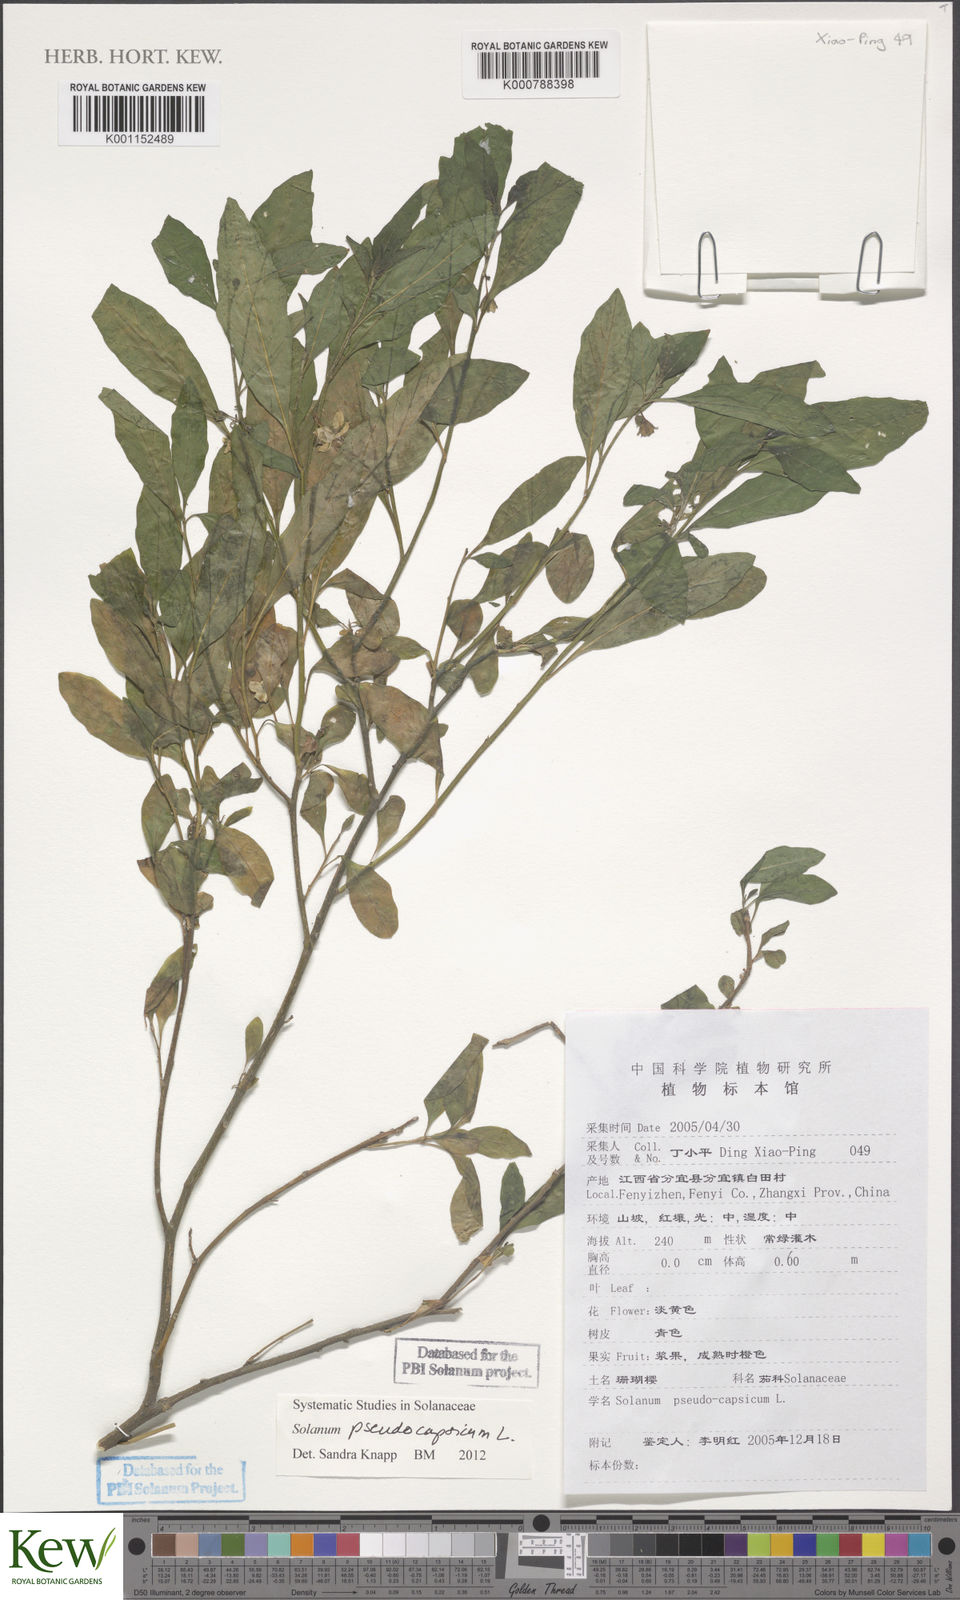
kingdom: Plantae
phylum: Tracheophyta
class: Magnoliopsida
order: Solanales
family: Solanaceae
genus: Solanum
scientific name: Solanum pseudocapsicum
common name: Jerusalem cherry
